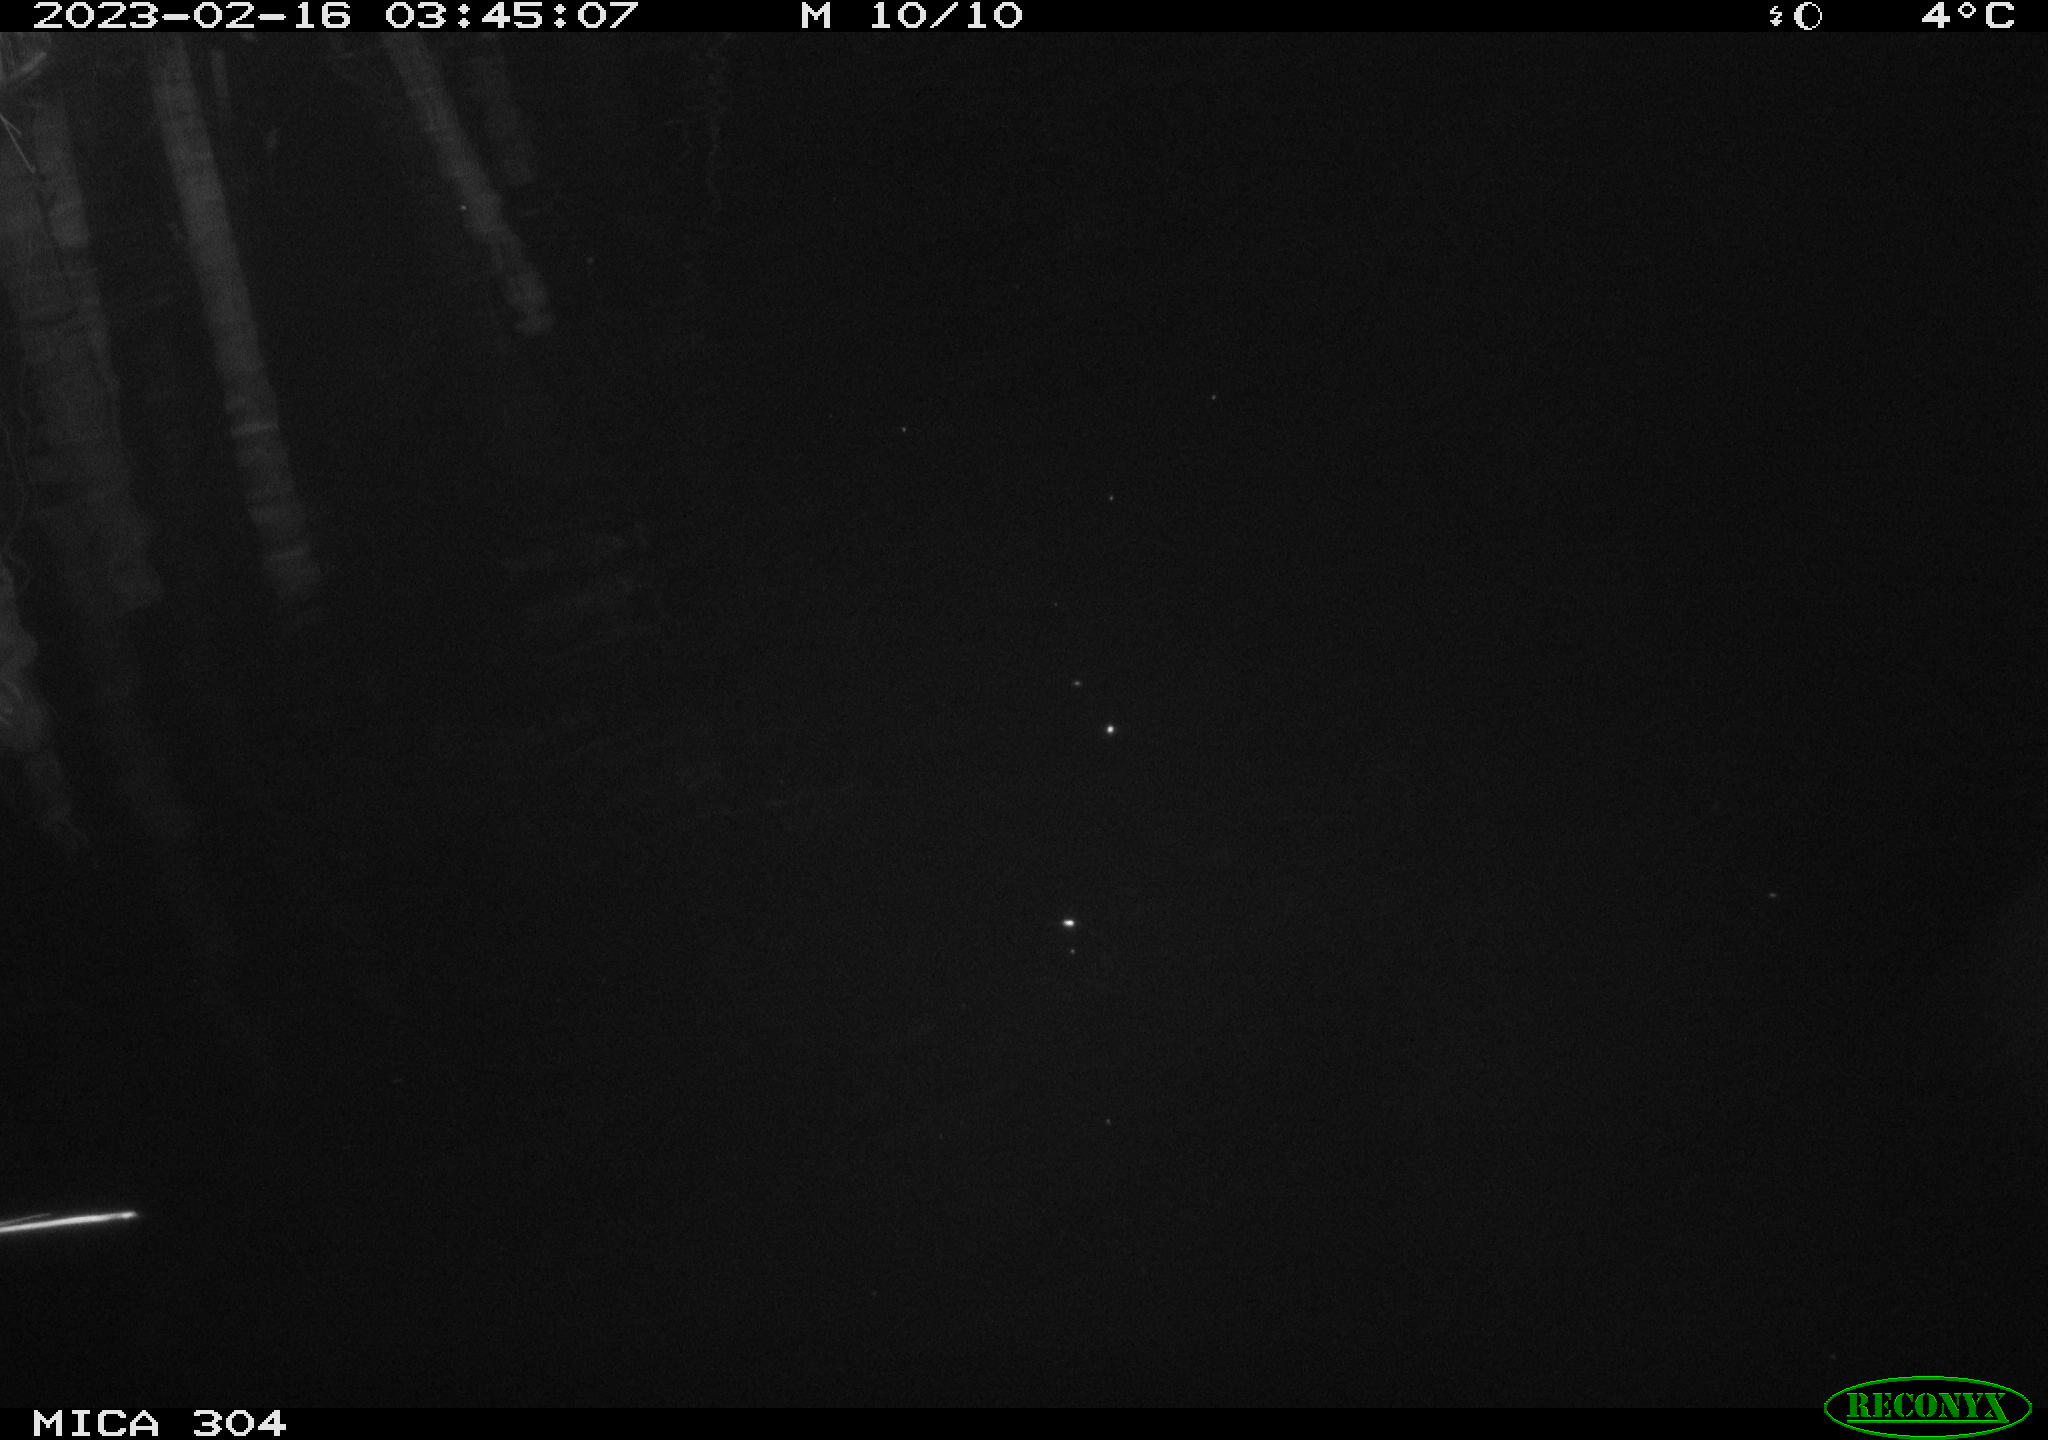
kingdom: Animalia
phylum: Chordata
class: Mammalia
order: Rodentia
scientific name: Rodentia
